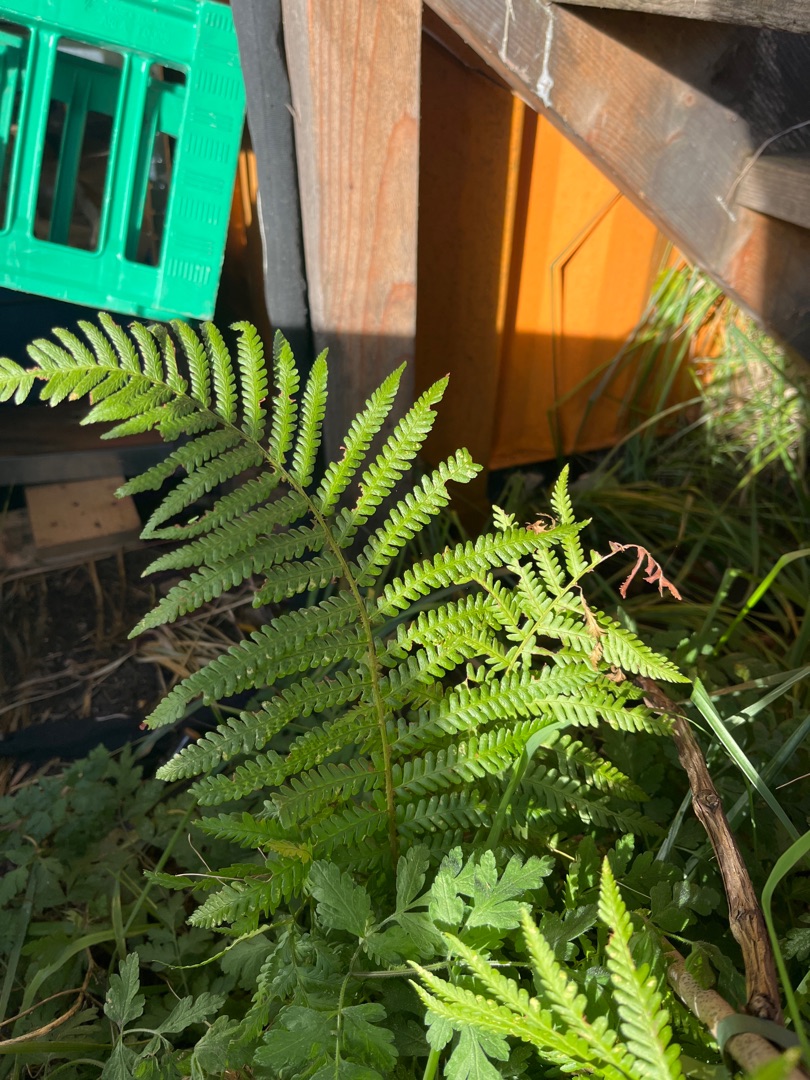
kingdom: Plantae
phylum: Tracheophyta
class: Polypodiopsida
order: Polypodiales
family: Dryopteridaceae
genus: Dryopteris
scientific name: Dryopteris filix-mas
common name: Almindelig mangeløv
